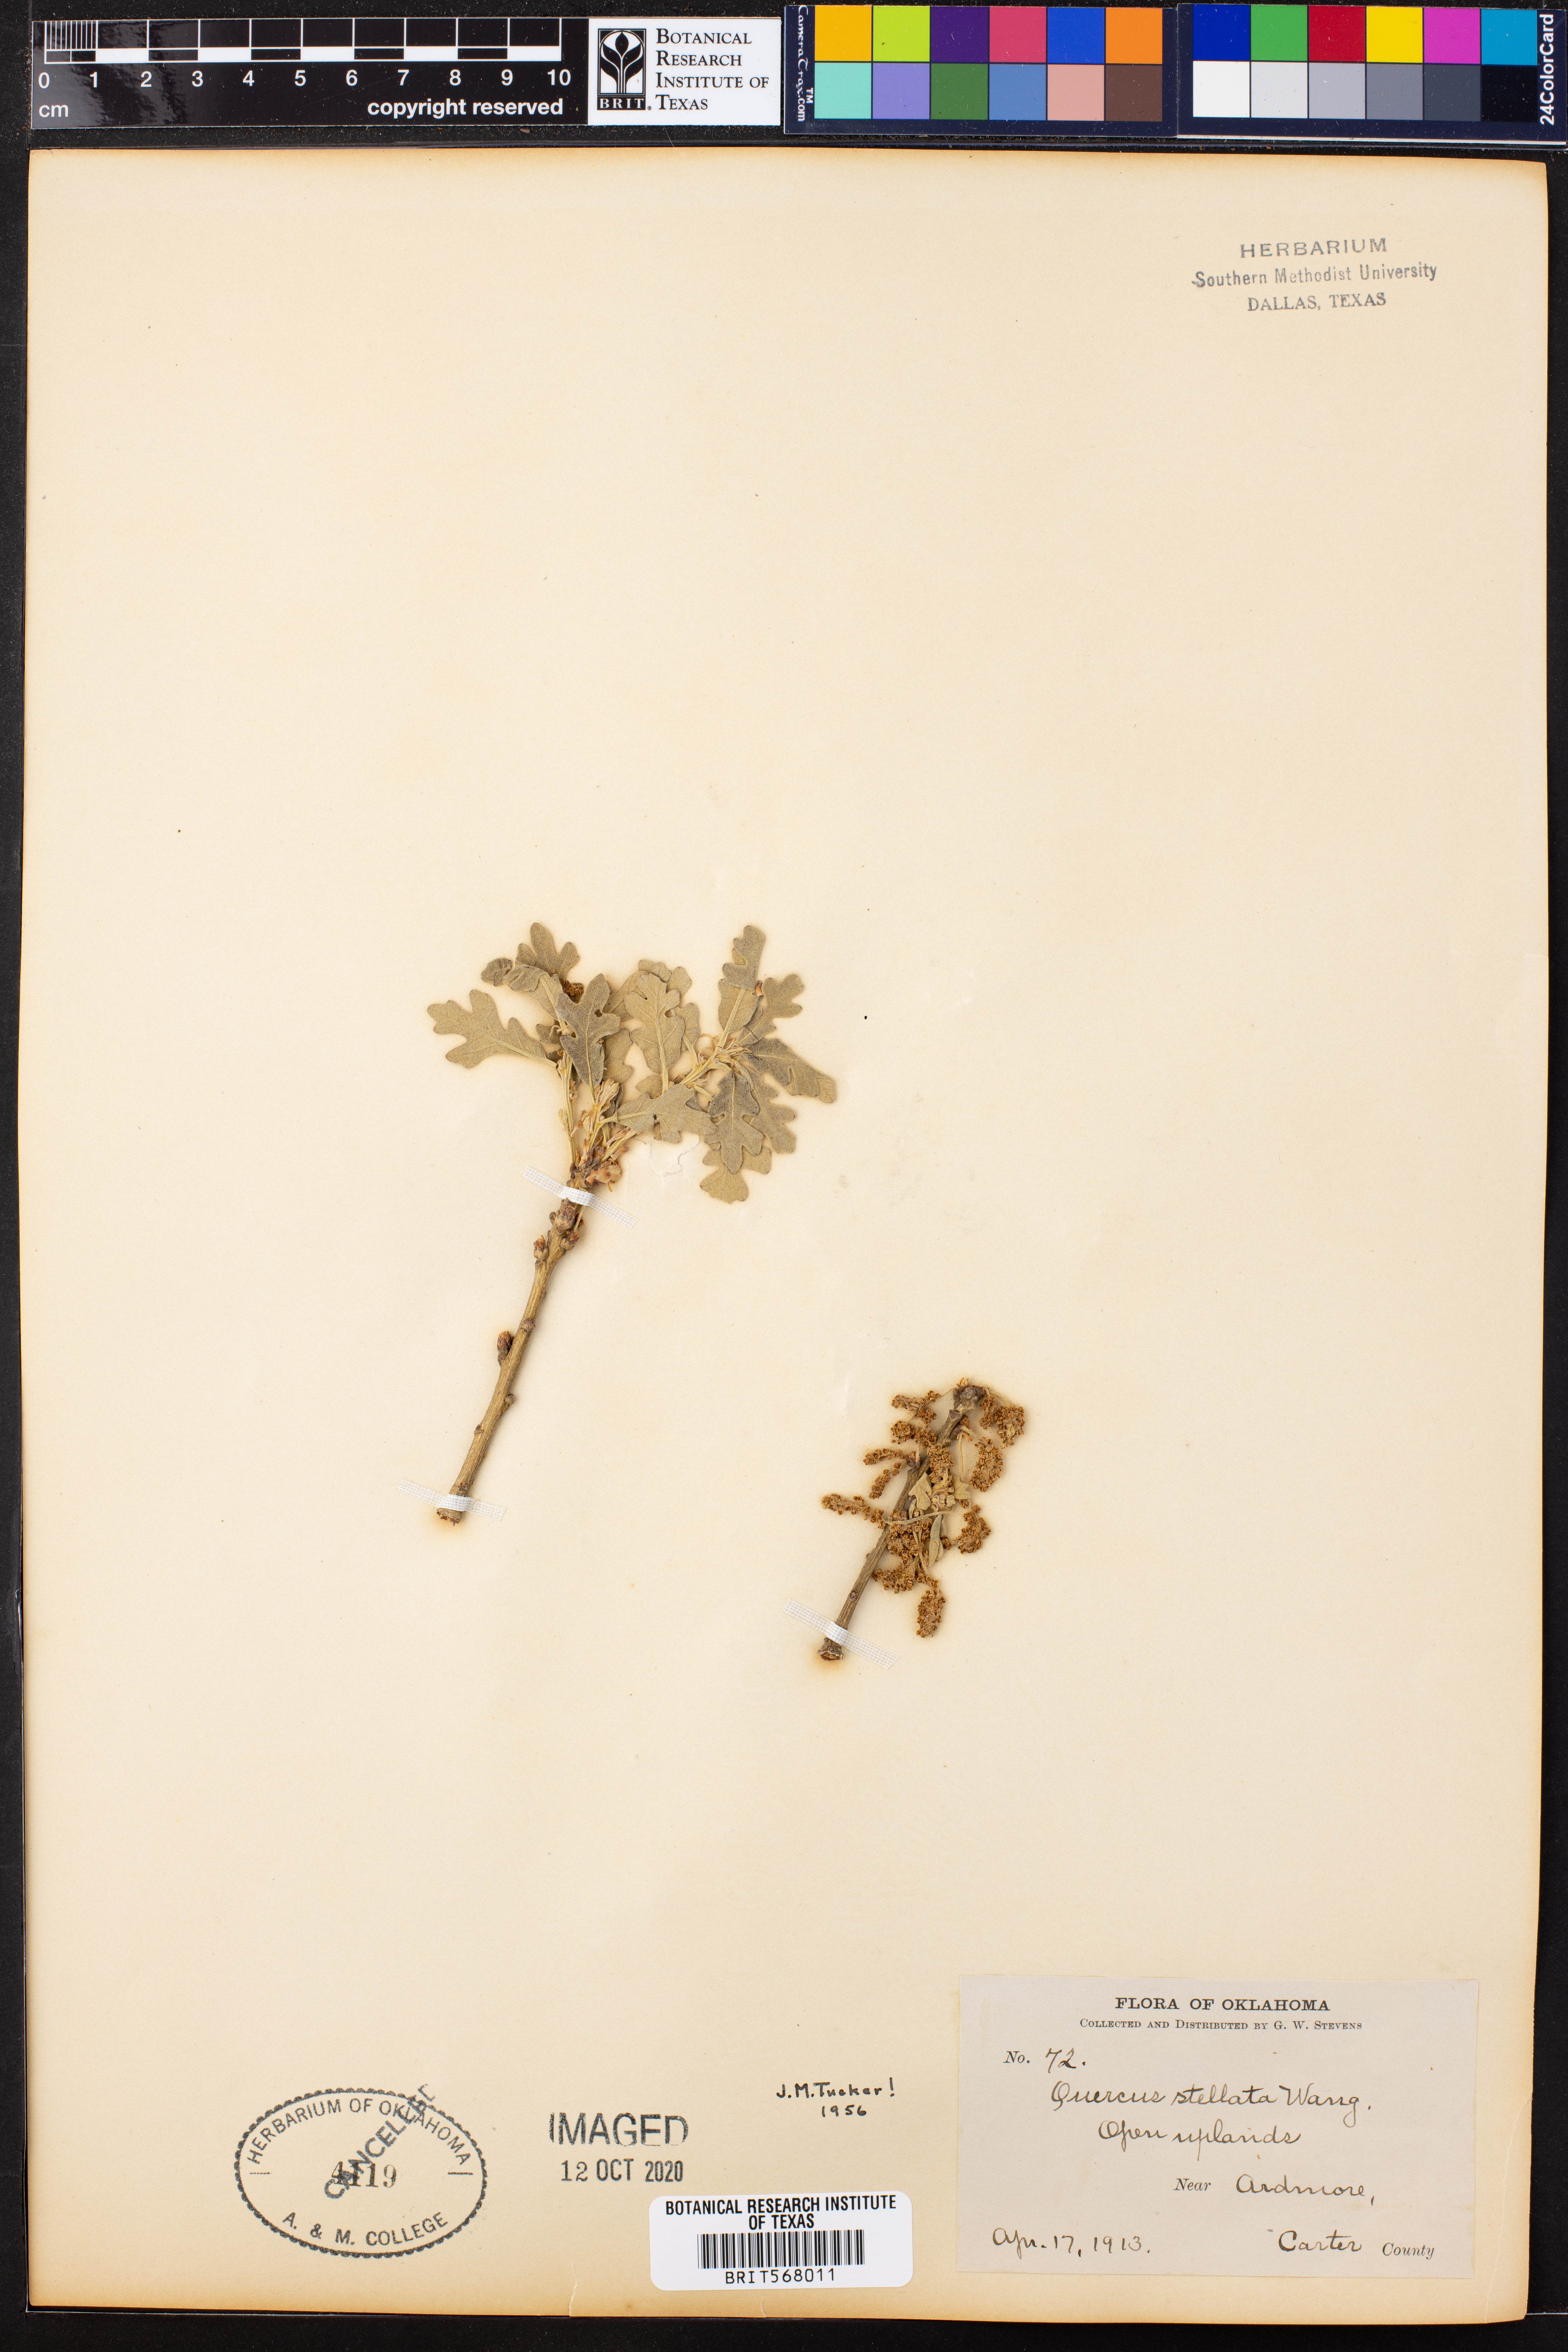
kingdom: Plantae
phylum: Tracheophyta
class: Magnoliopsida
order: Fagales
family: Fagaceae
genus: Quercus
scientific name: Quercus stellata
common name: Post oak
